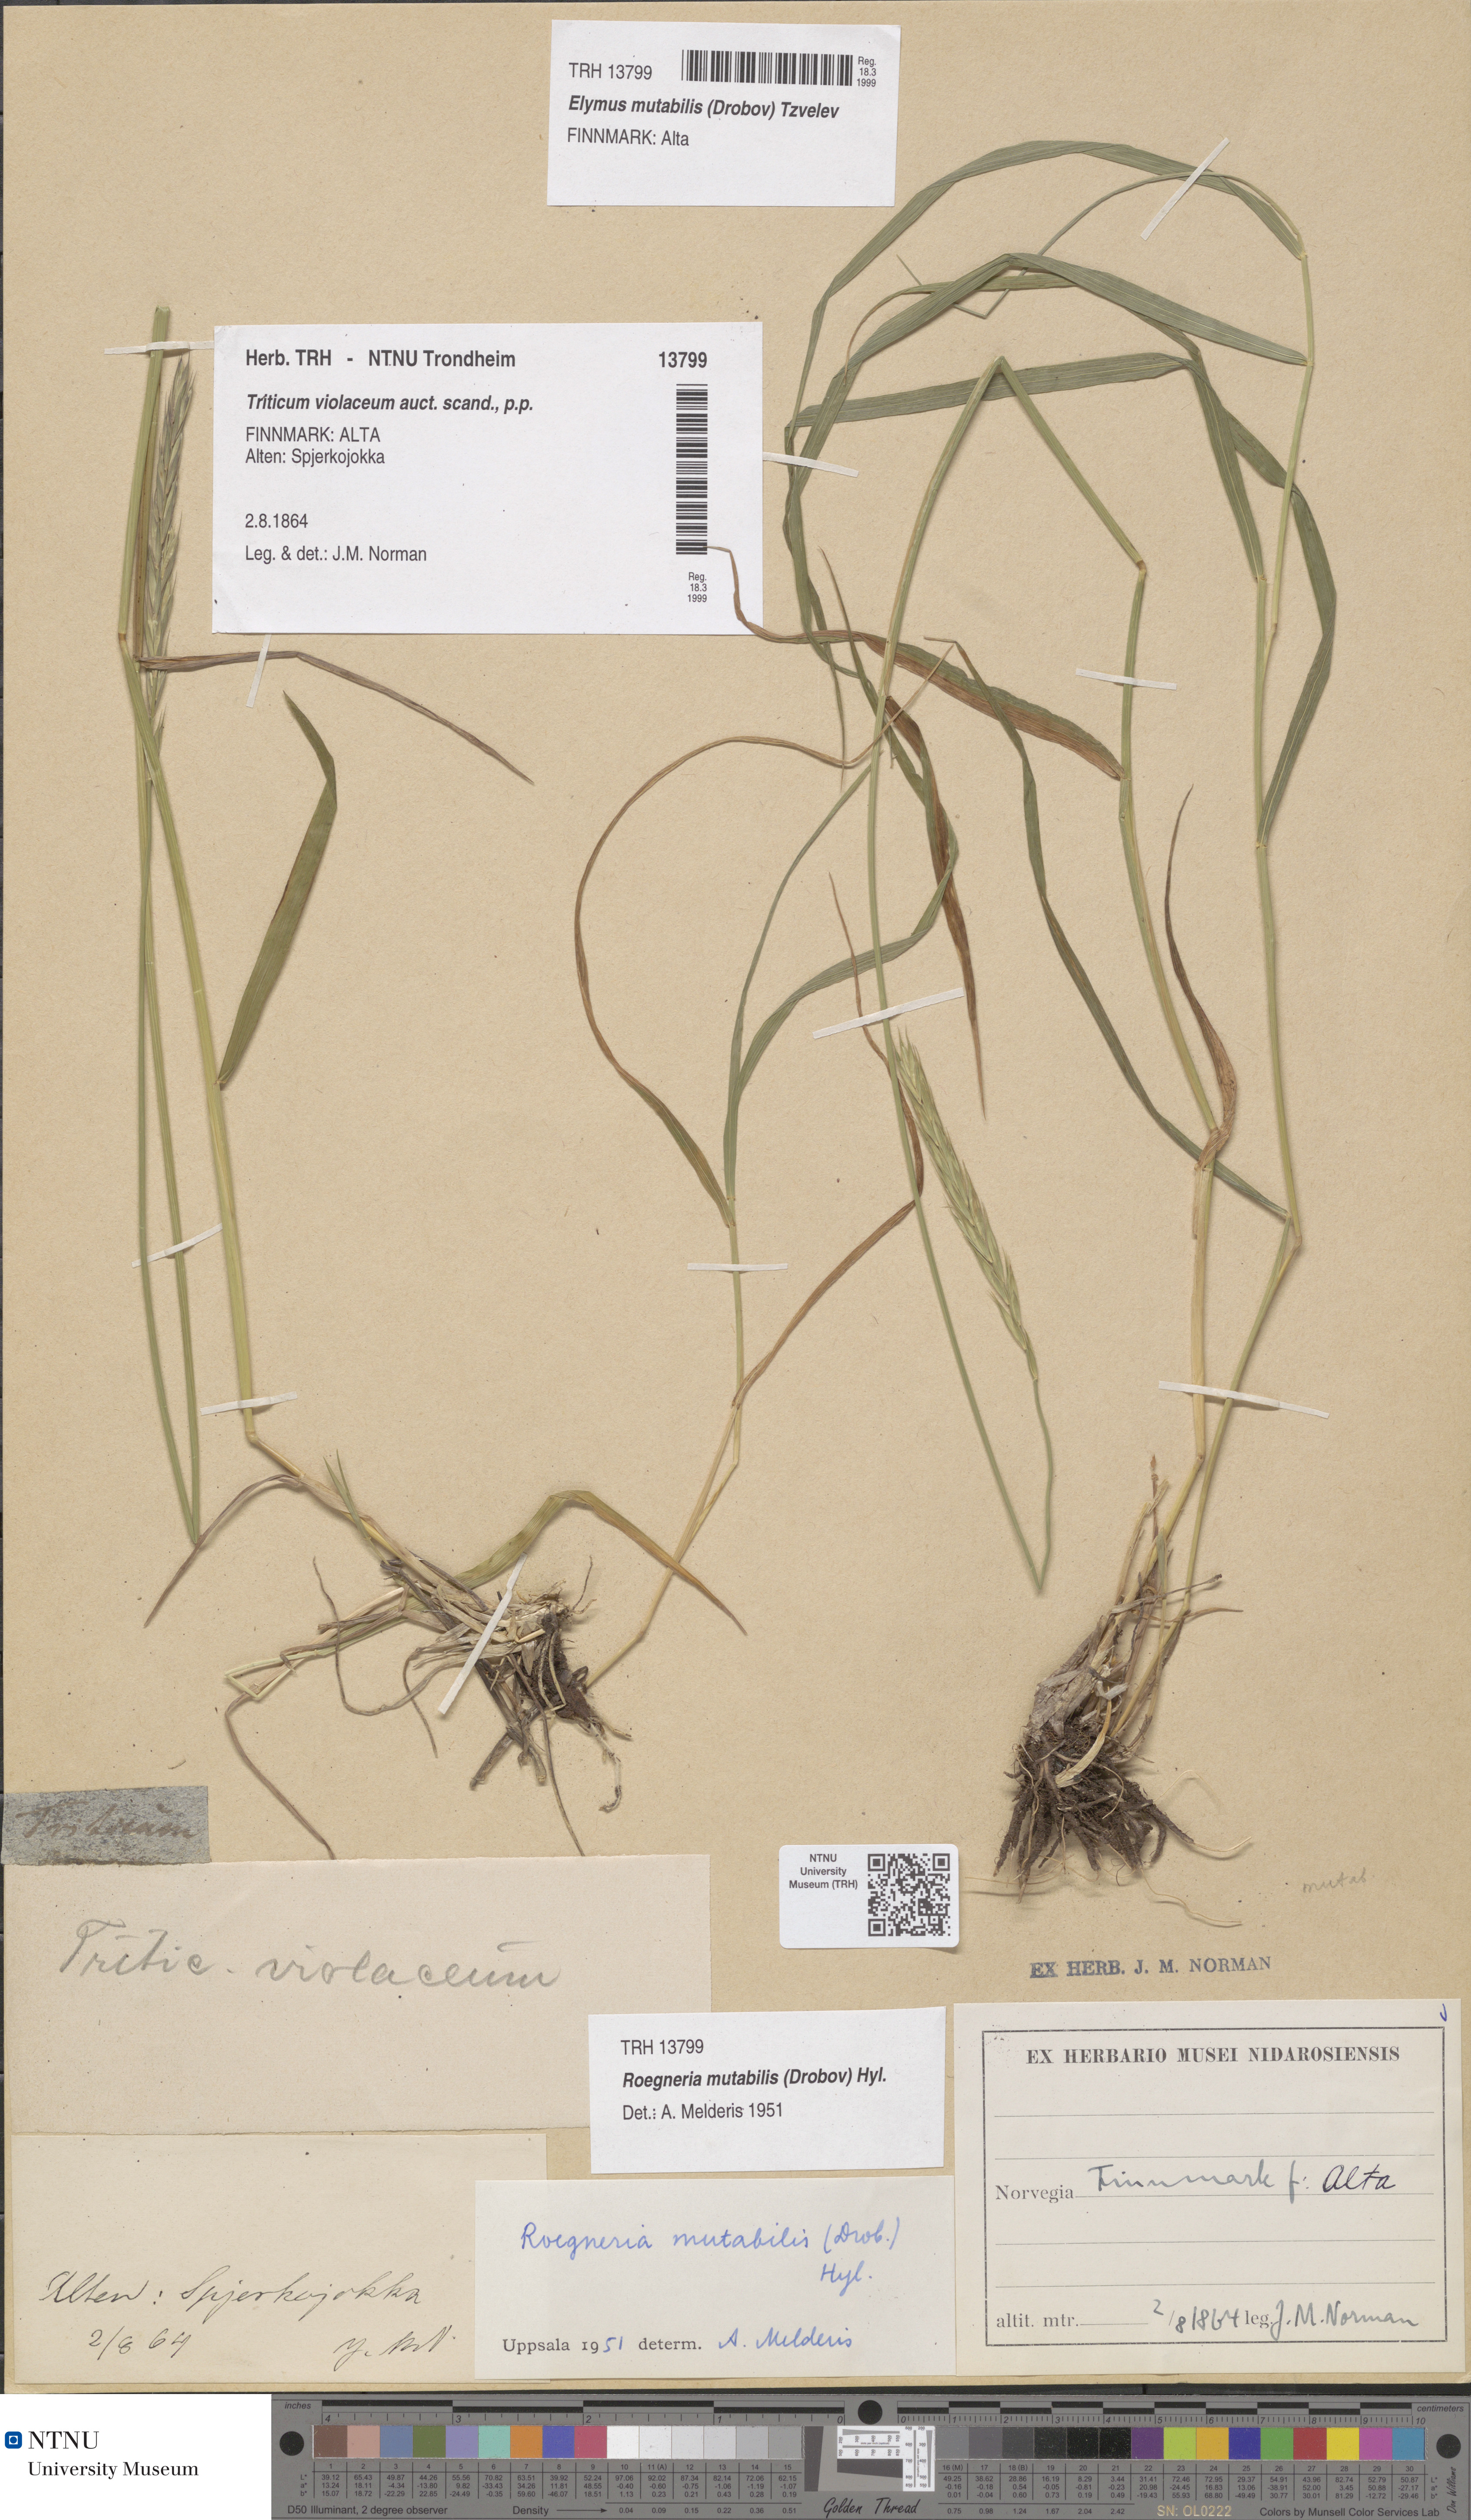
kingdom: Plantae
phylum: Tracheophyta
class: Liliopsida
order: Poales
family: Poaceae
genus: Elymus
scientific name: Elymus mutabilis
